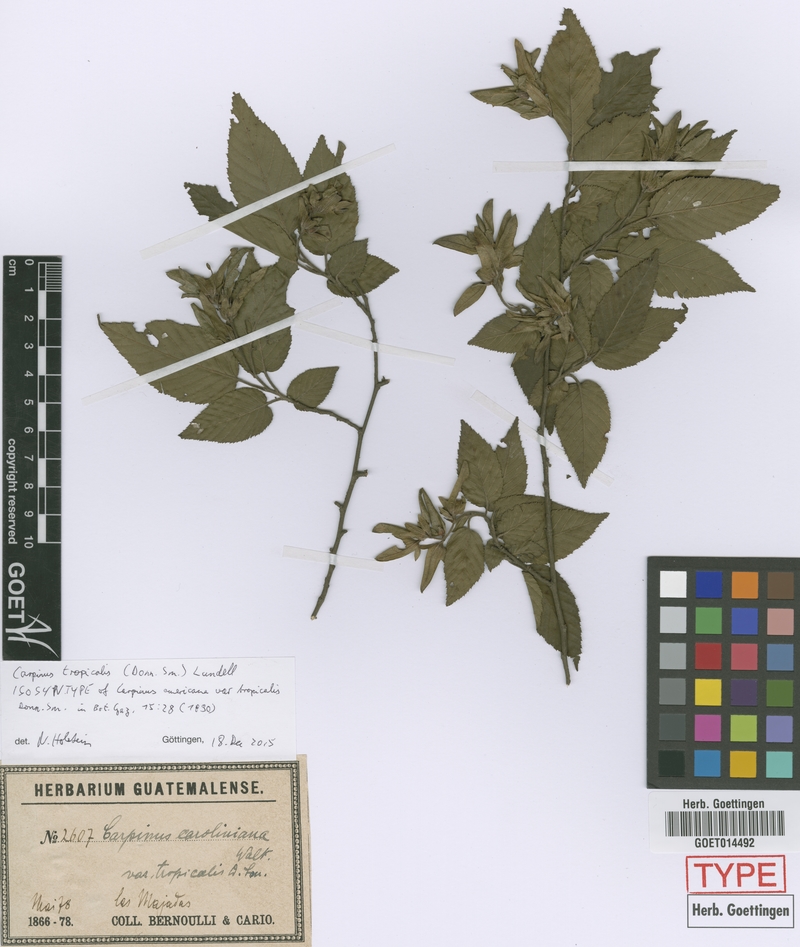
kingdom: Plantae
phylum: Tracheophyta
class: Magnoliopsida
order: Fagales
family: Betulaceae
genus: Carpinus
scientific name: Carpinus tropicalis
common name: Hornbeam
